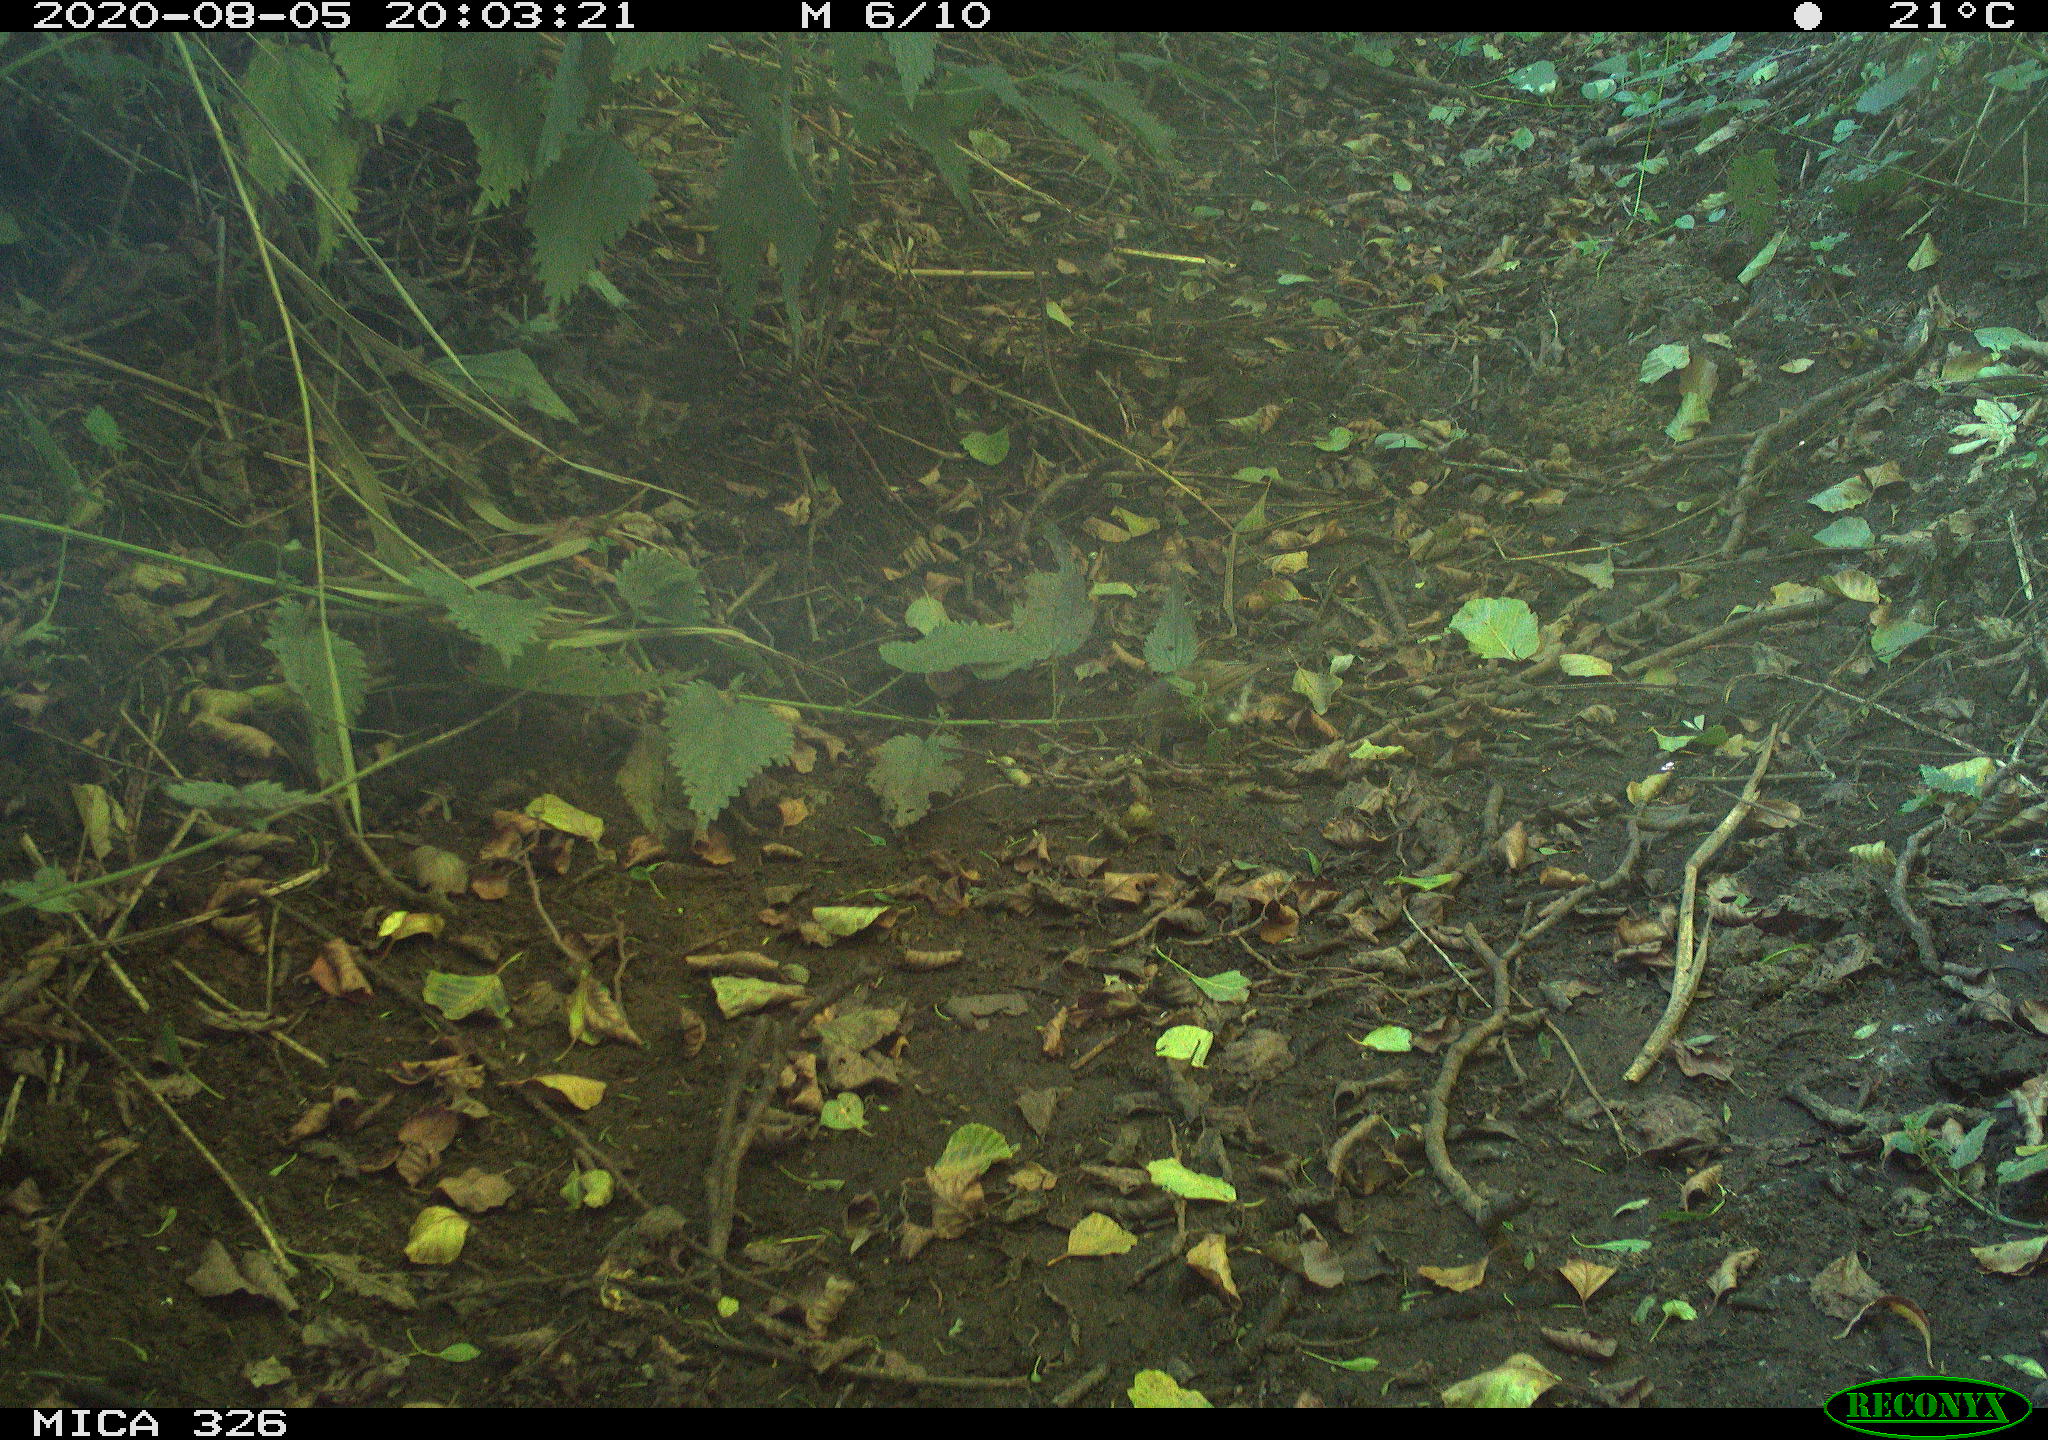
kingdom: Animalia
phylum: Chordata
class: Aves
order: Passeriformes
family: Muscicapidae
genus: Erithacus
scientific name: Erithacus rubecula
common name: European robin
